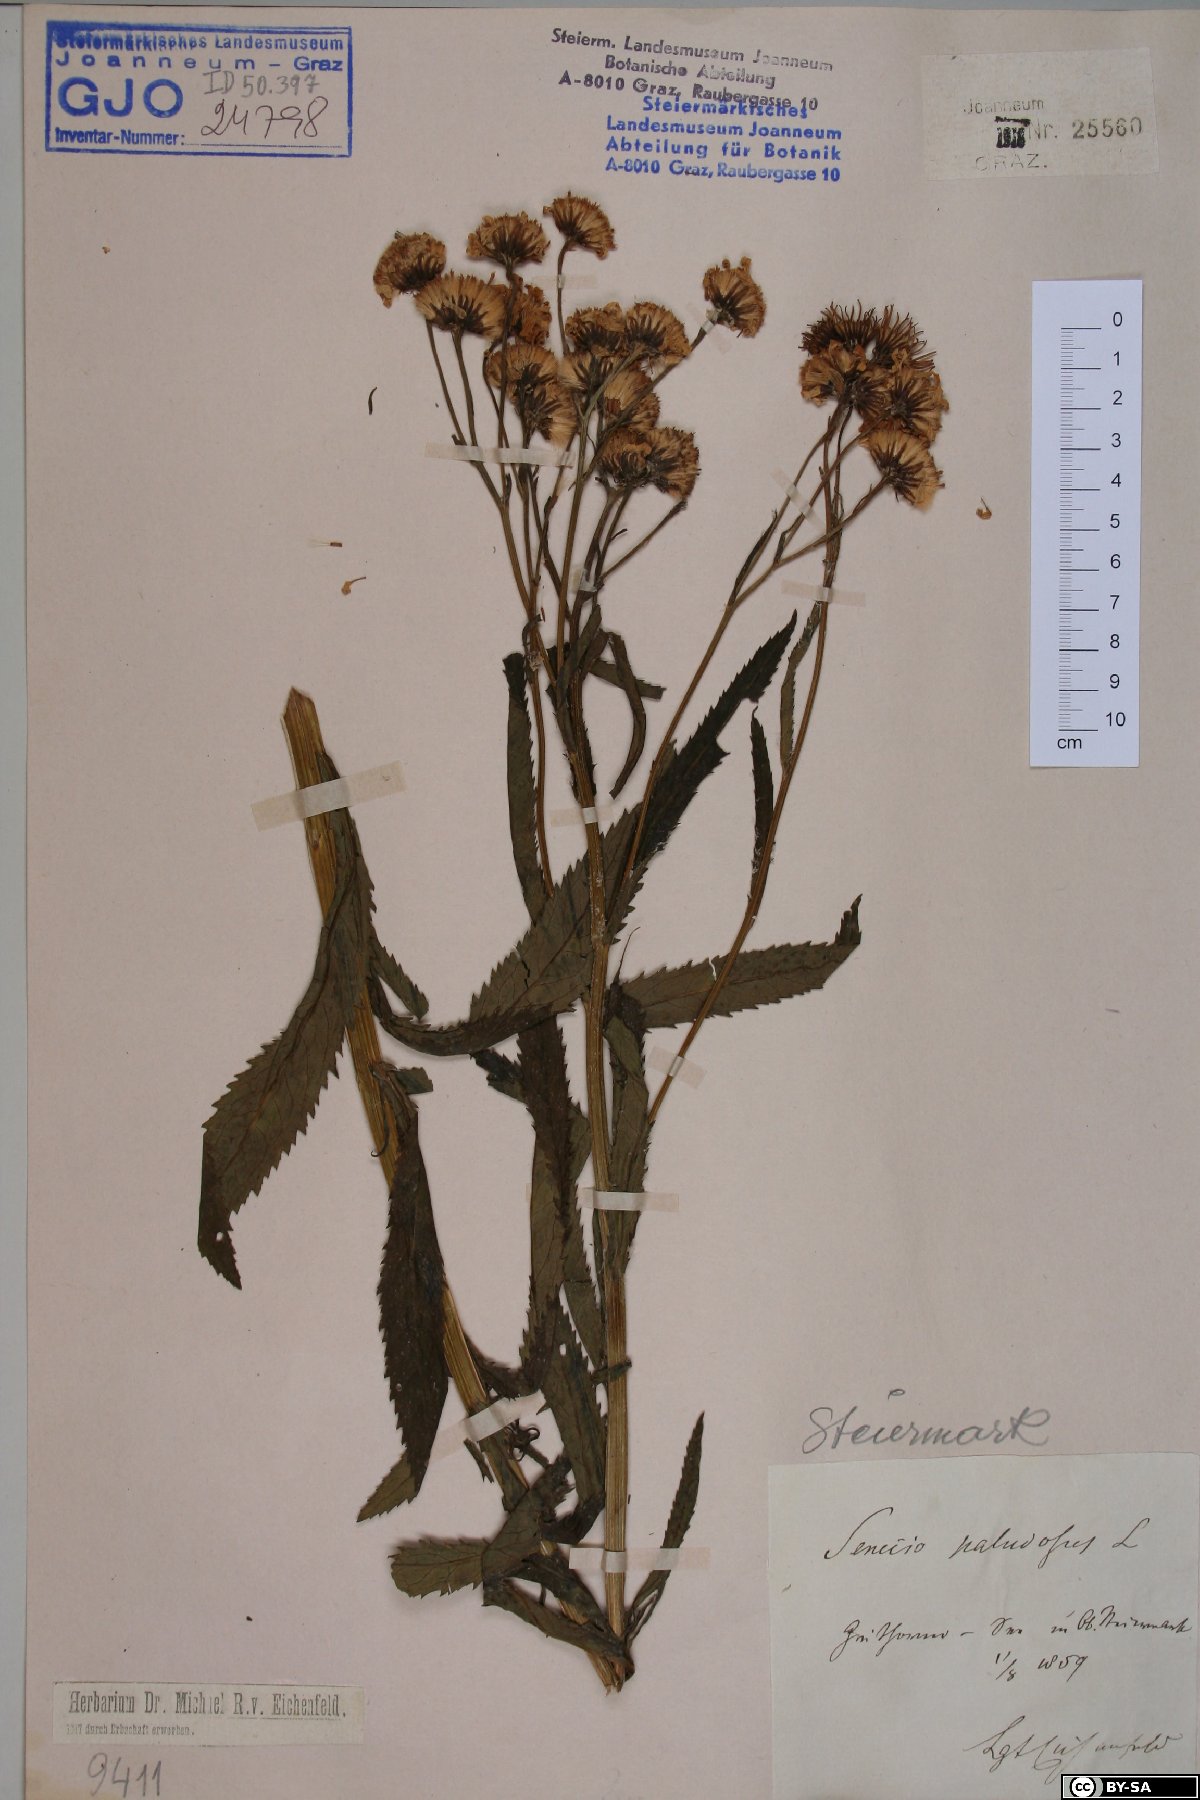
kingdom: Plantae
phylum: Tracheophyta
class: Magnoliopsida
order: Asterales
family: Asteraceae
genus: Jacobaea
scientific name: Jacobaea paludosa
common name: Fen ragwort
